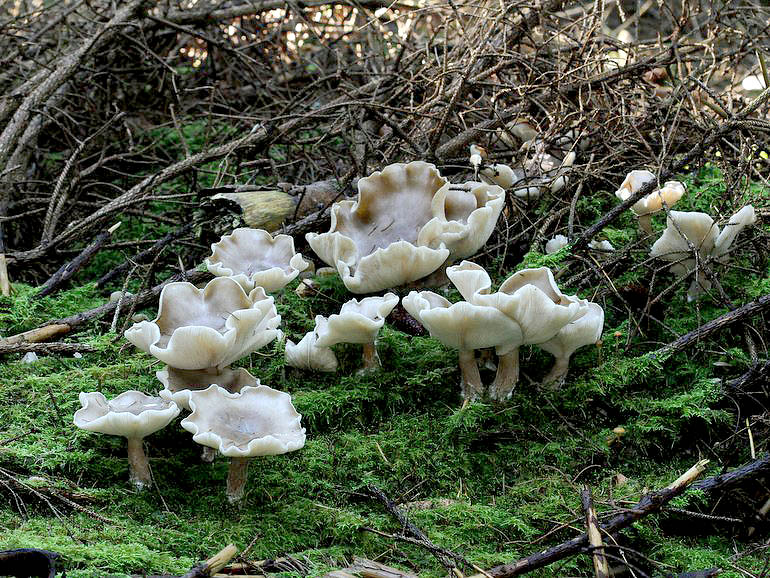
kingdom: Fungi
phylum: Basidiomycota
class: Agaricomycetes
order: Agaricales
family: Tricholomataceae
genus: Clitocybe
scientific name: Clitocybe nebularis
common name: tåge-tragthat
